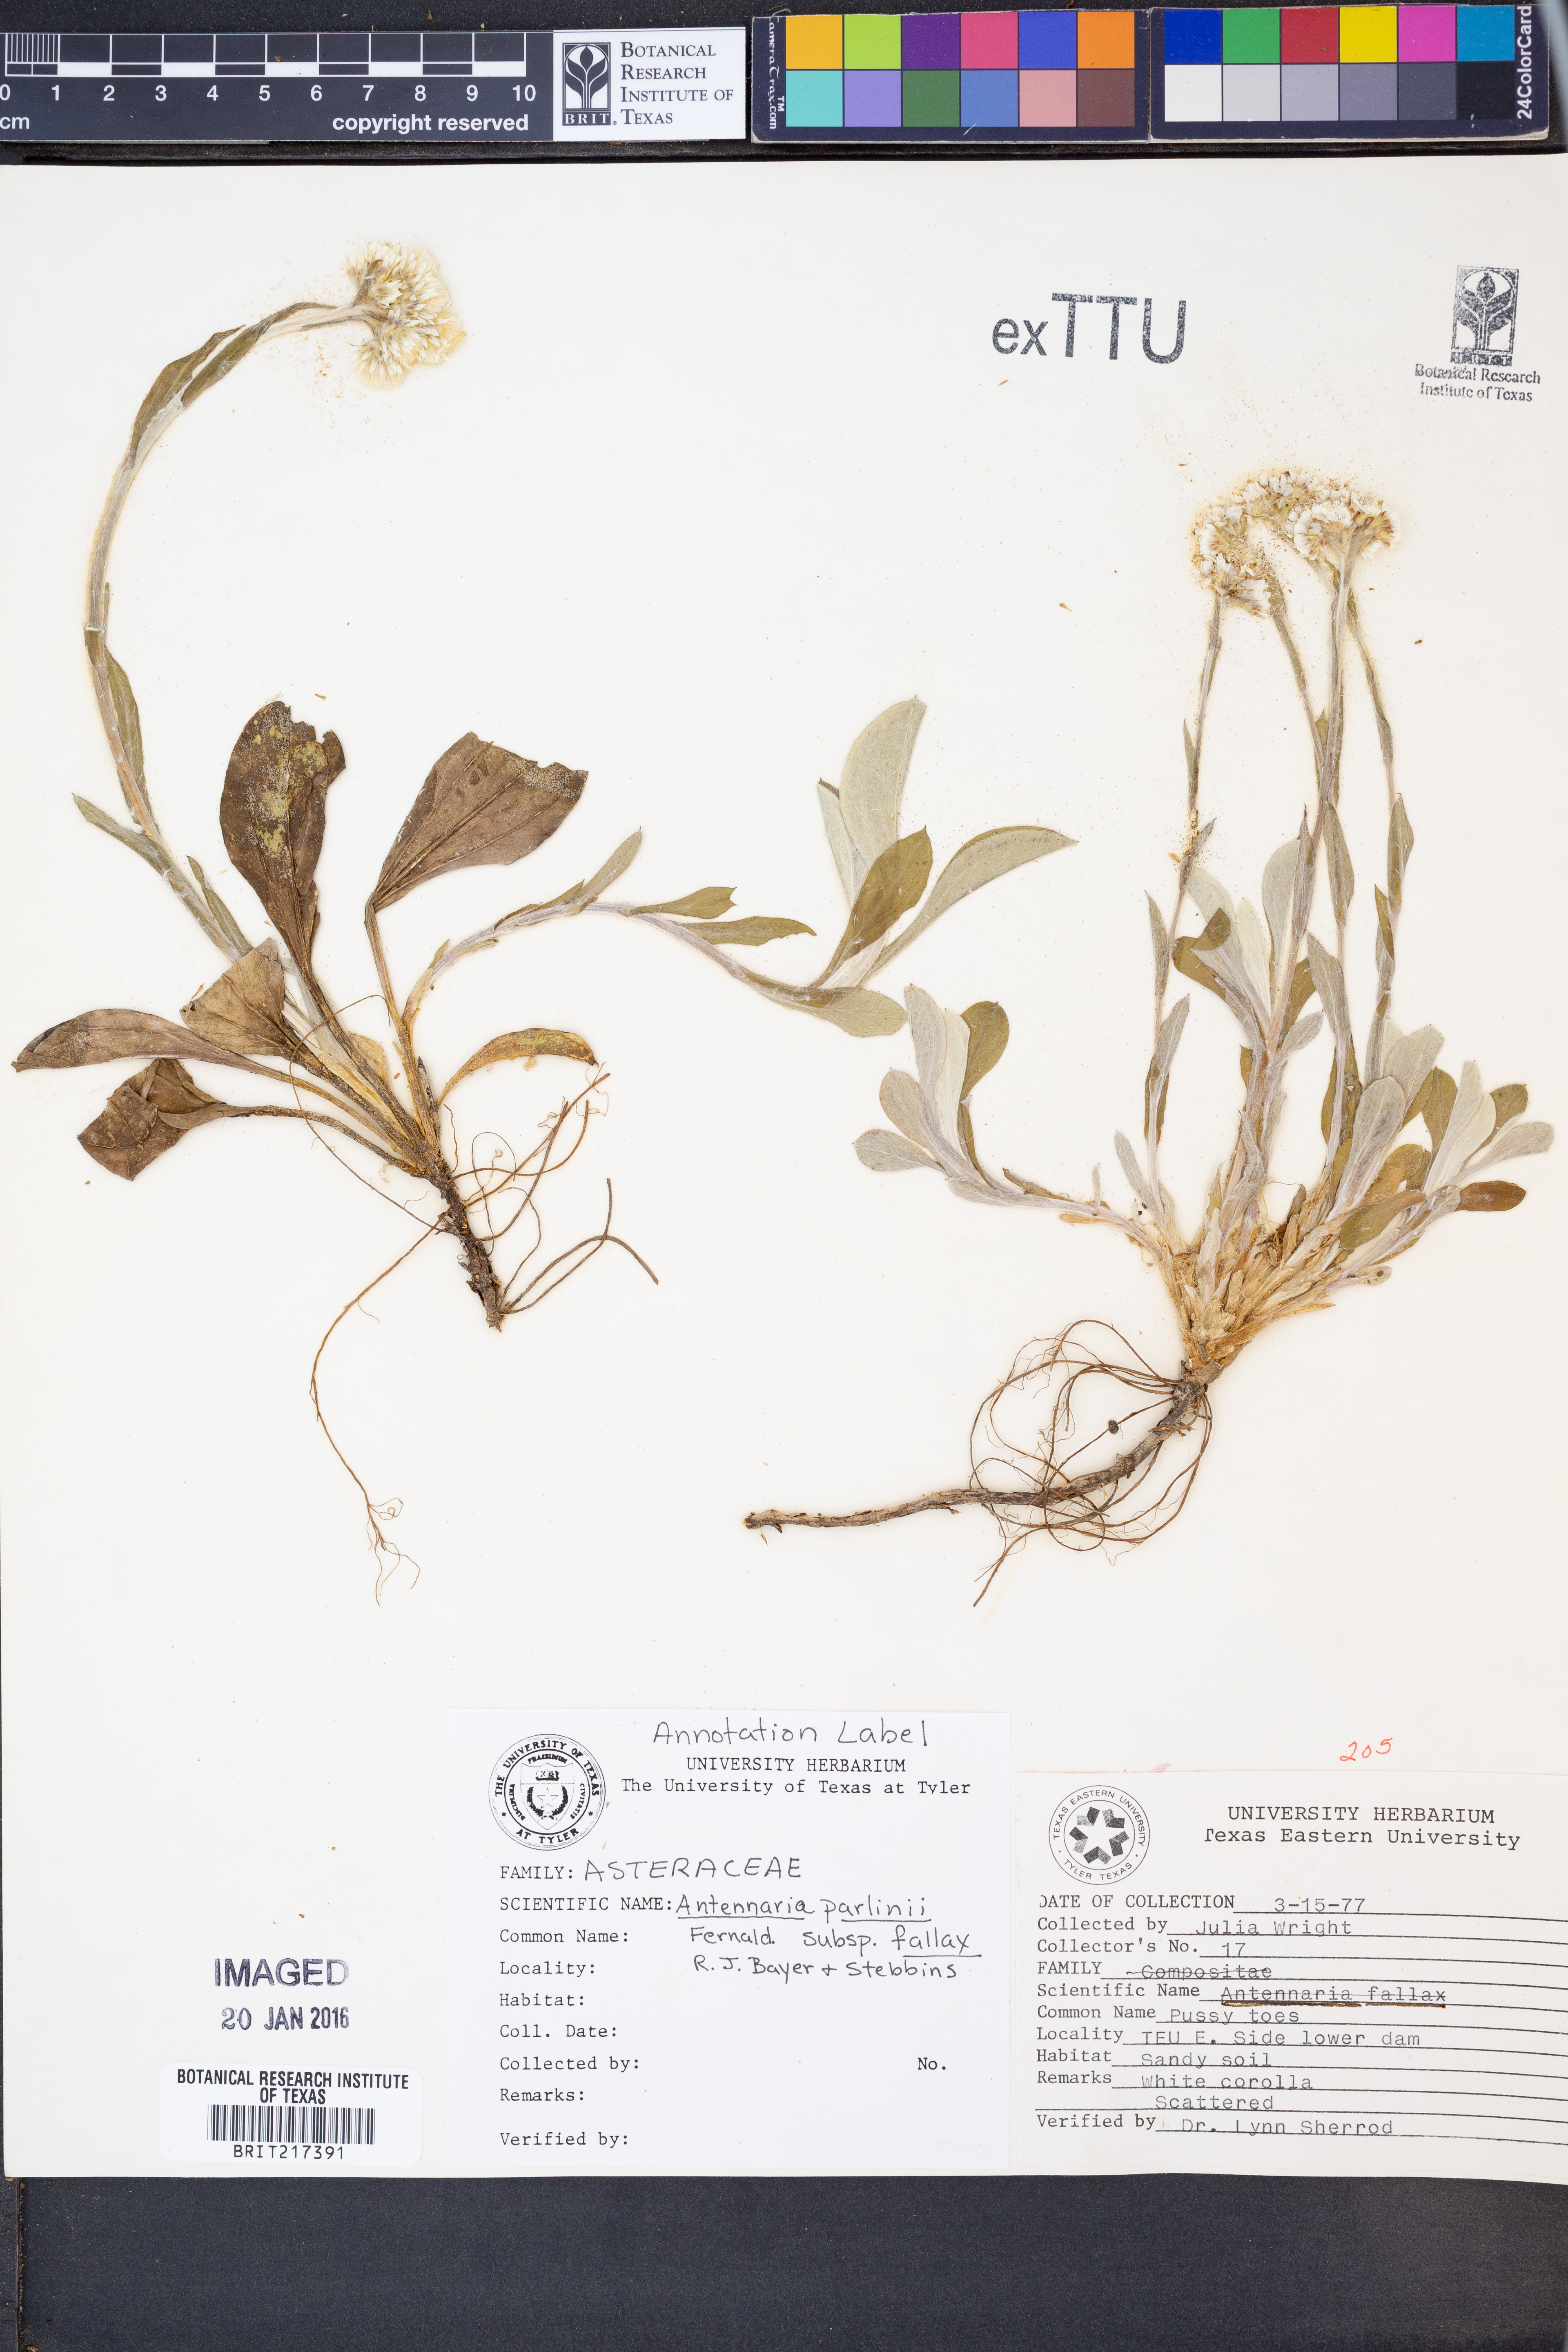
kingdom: Plantae
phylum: Tracheophyta
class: Magnoliopsida
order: Asterales
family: Asteraceae
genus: Antennaria
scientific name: Antennaria parlinii
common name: Parlin's pussytoes
